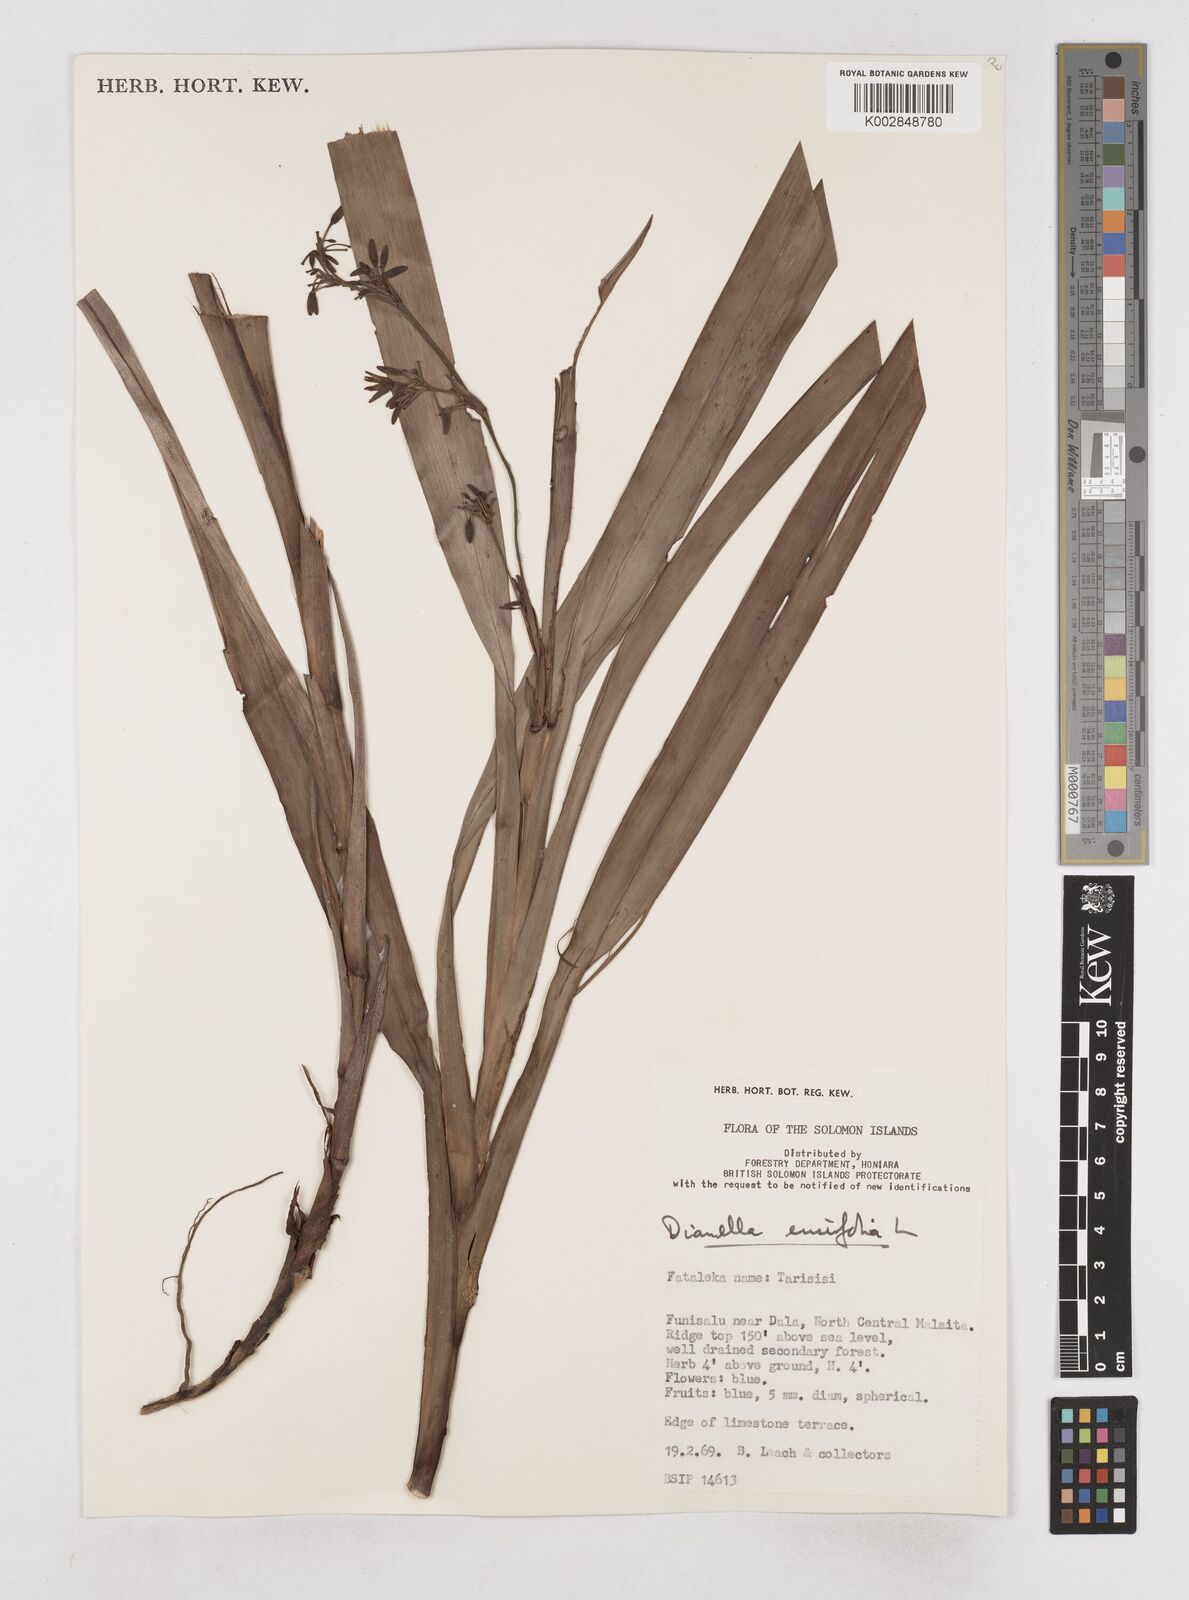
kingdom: Plantae
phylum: Tracheophyta
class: Liliopsida
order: Asparagales
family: Asphodelaceae
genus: Dianella
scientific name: Dianella ensifolia
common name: New zealand lilyplant
